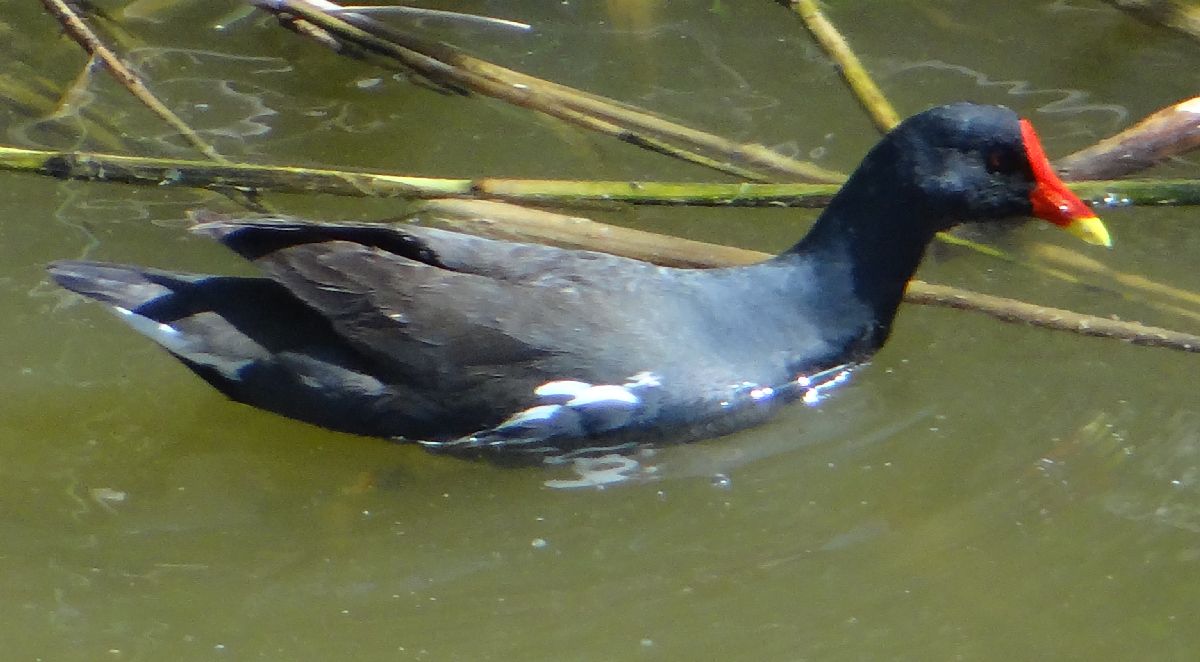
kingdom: Animalia
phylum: Chordata
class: Aves
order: Gruiformes
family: Rallidae
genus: Gallinula
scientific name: Gallinula chloropus
